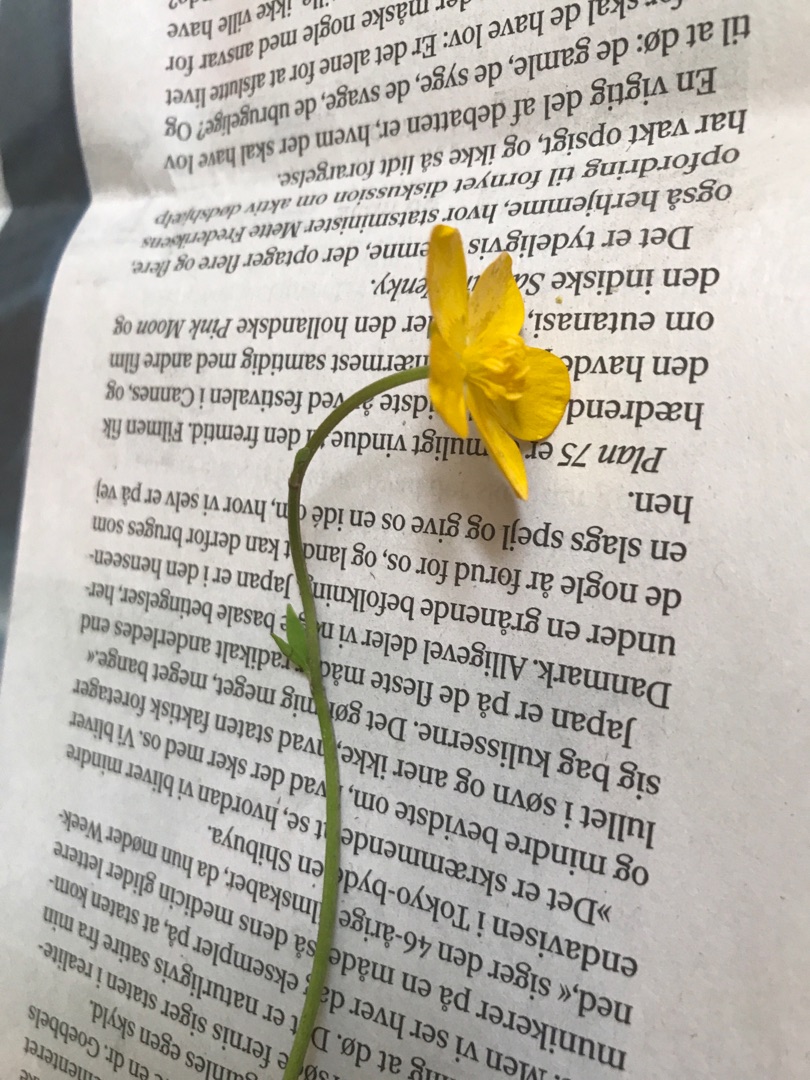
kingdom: Plantae
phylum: Tracheophyta
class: Magnoliopsida
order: Ranunculales
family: Ranunculaceae
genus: Ranunculus
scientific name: Ranunculus repens
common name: Lav ranunkel
